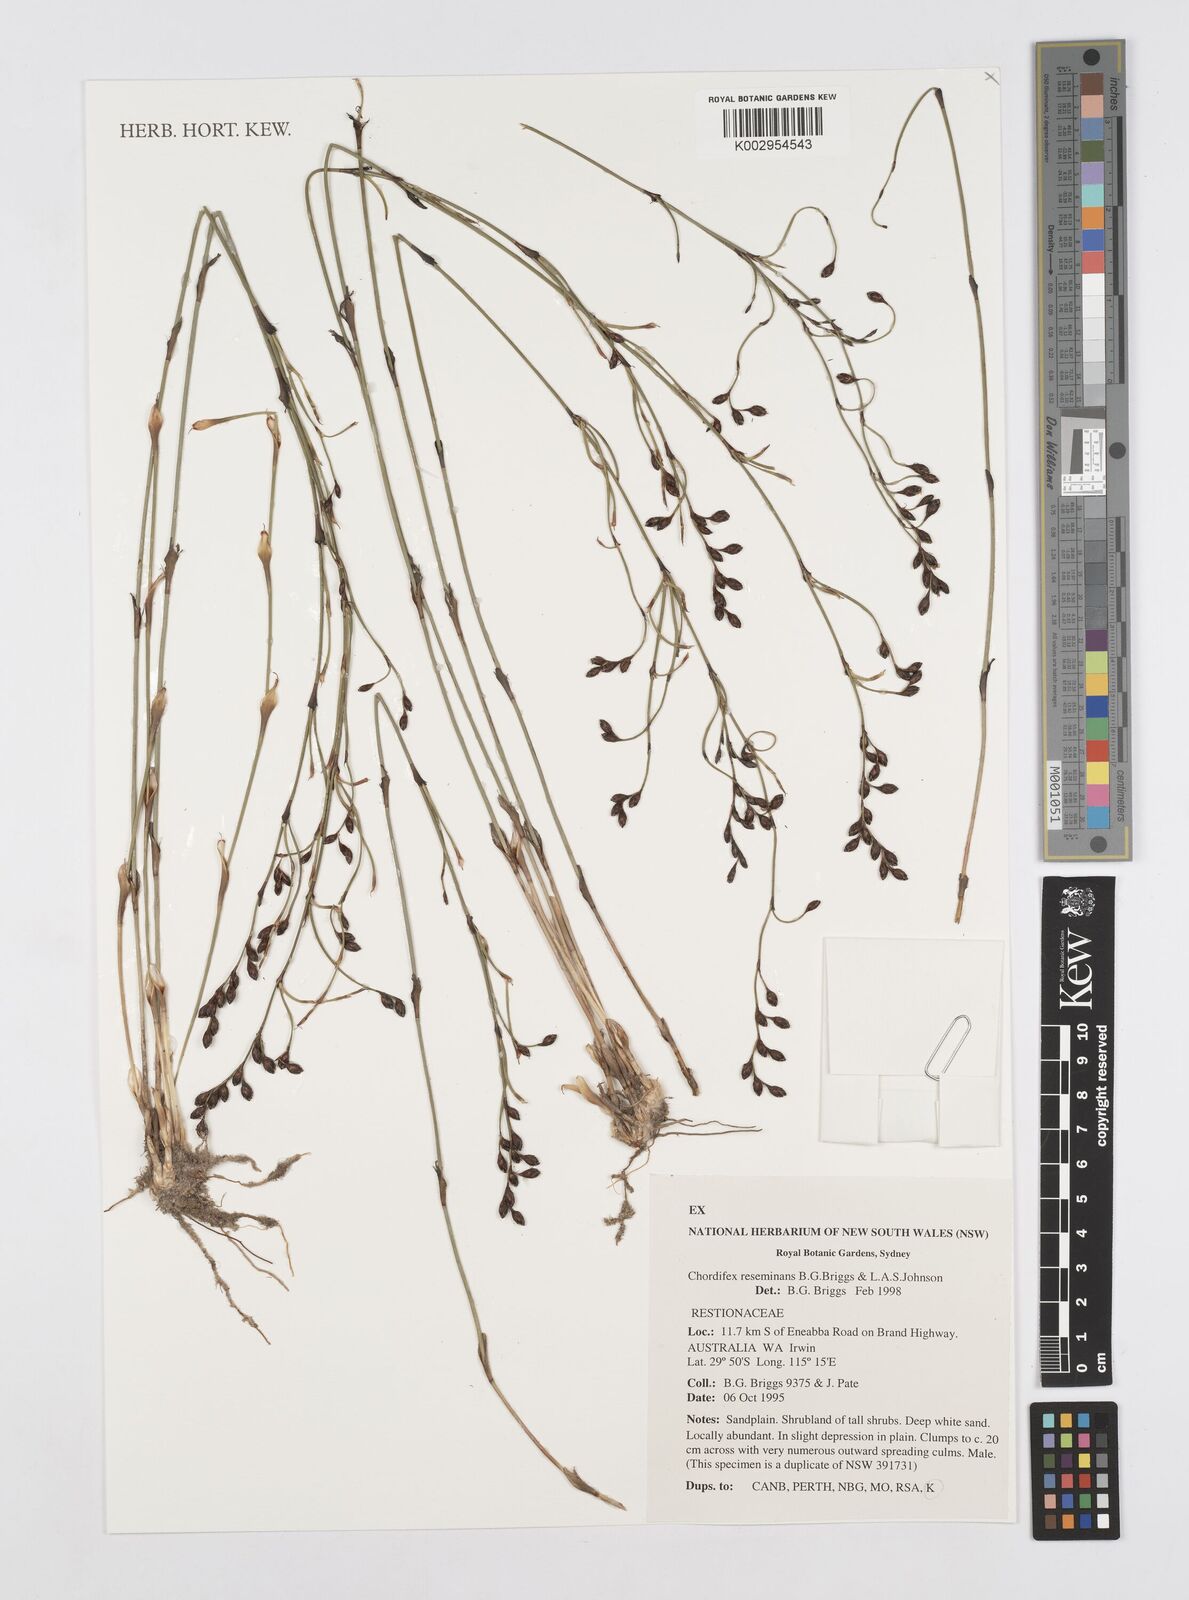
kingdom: Plantae
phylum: Tracheophyta
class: Liliopsida
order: Poales
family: Restionaceae
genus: Chordifex
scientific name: Chordifex reseminans
